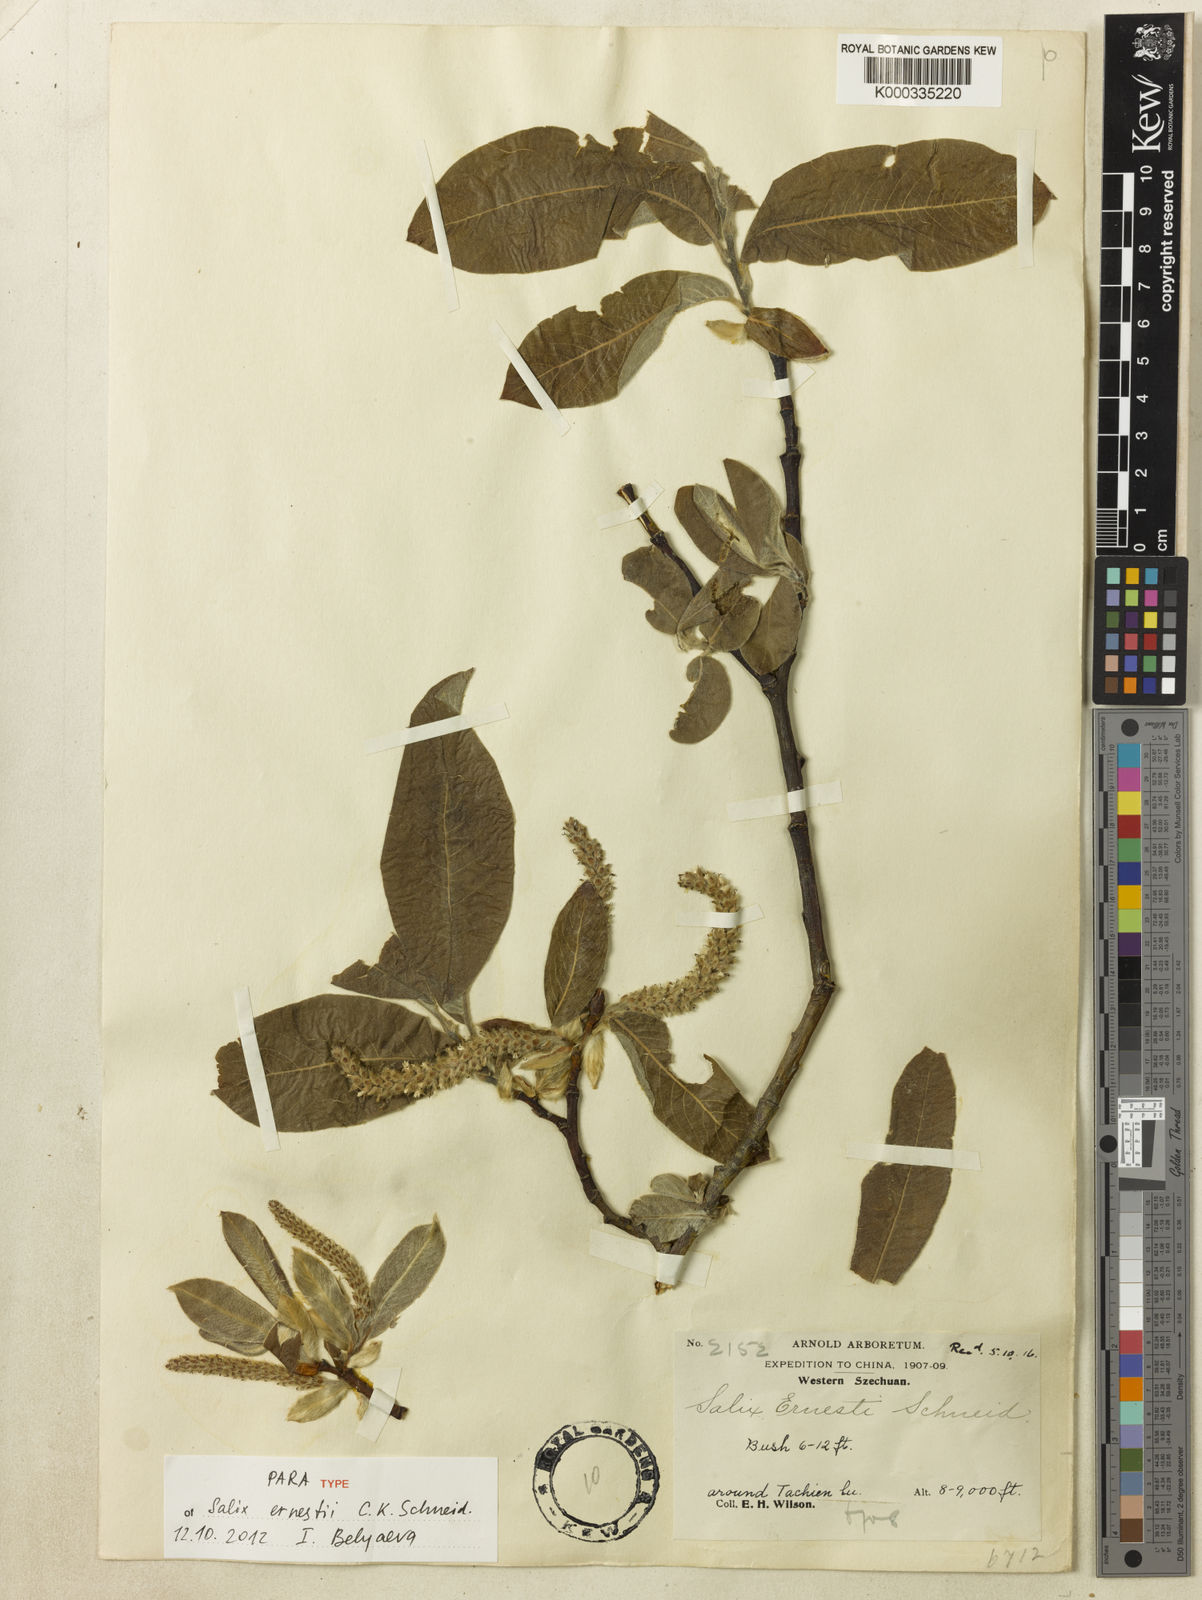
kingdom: Plantae
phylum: Tracheophyta
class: Magnoliopsida
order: Malpighiales
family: Salicaceae
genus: Salix
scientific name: Salix ernestii
